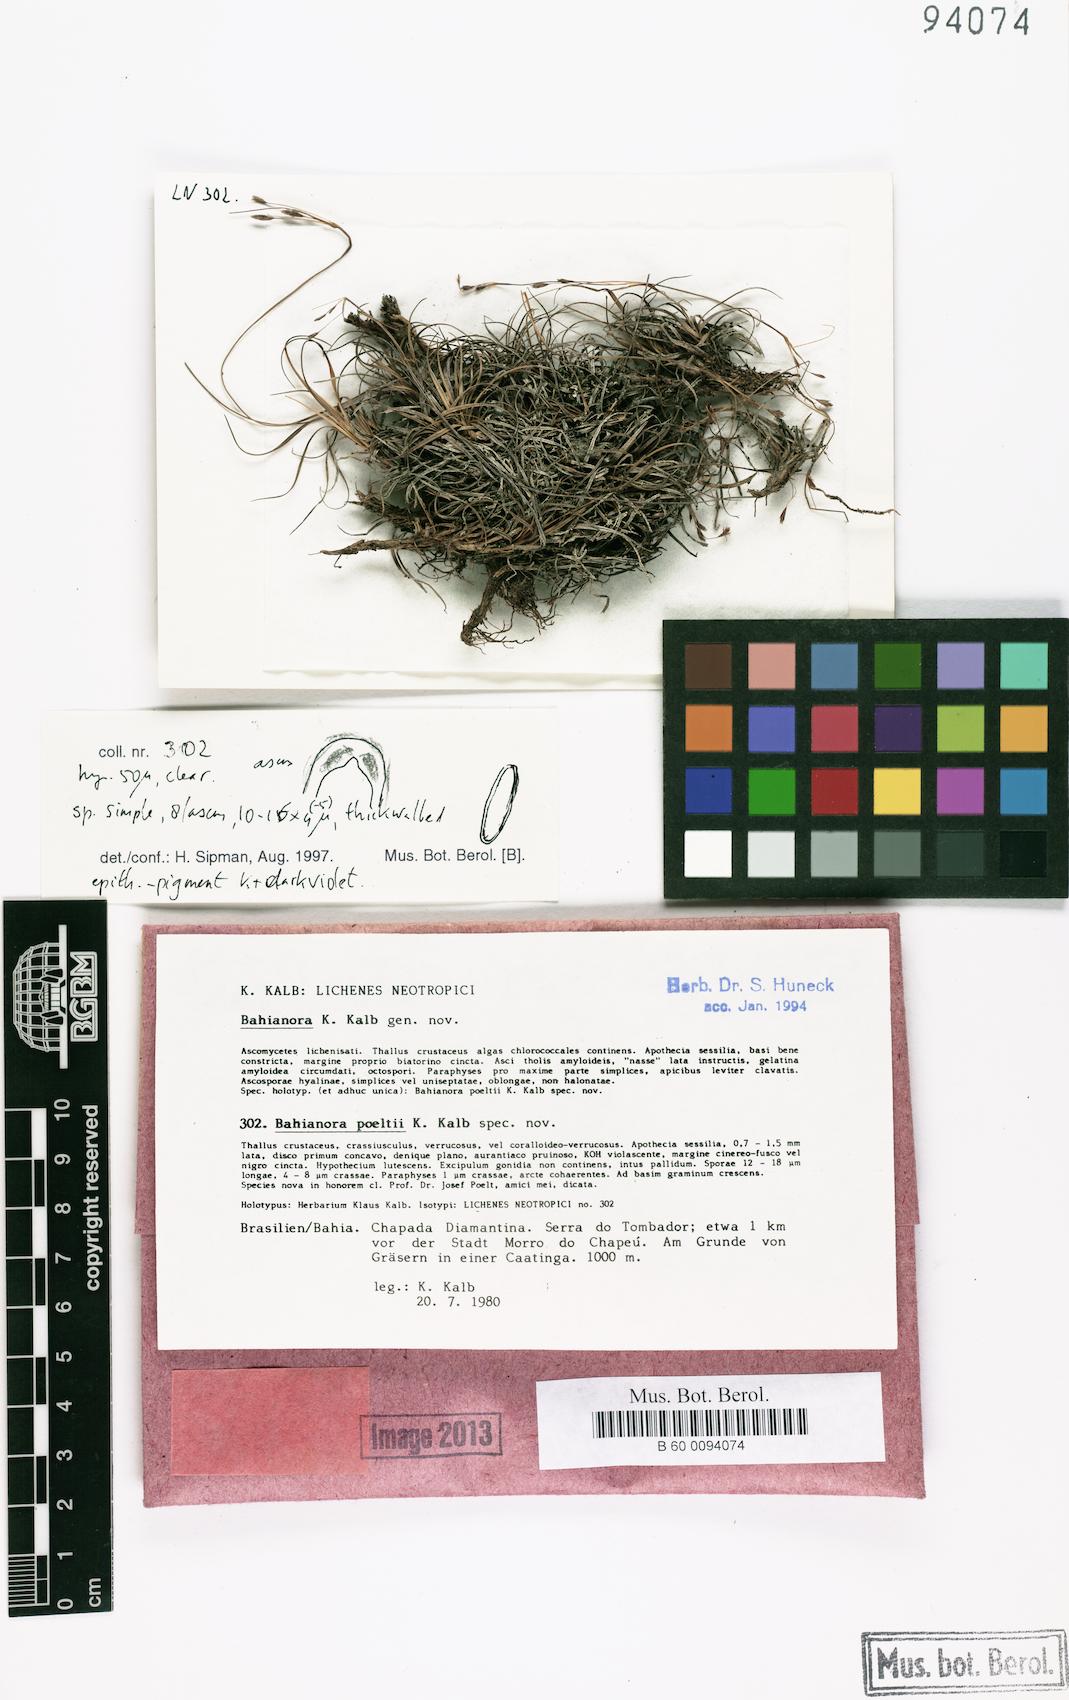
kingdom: Fungi
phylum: Ascomycota
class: Lecanoromycetes
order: Lecideales
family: Lecideaceae
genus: Bahianora
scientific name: Bahianora poeltii
